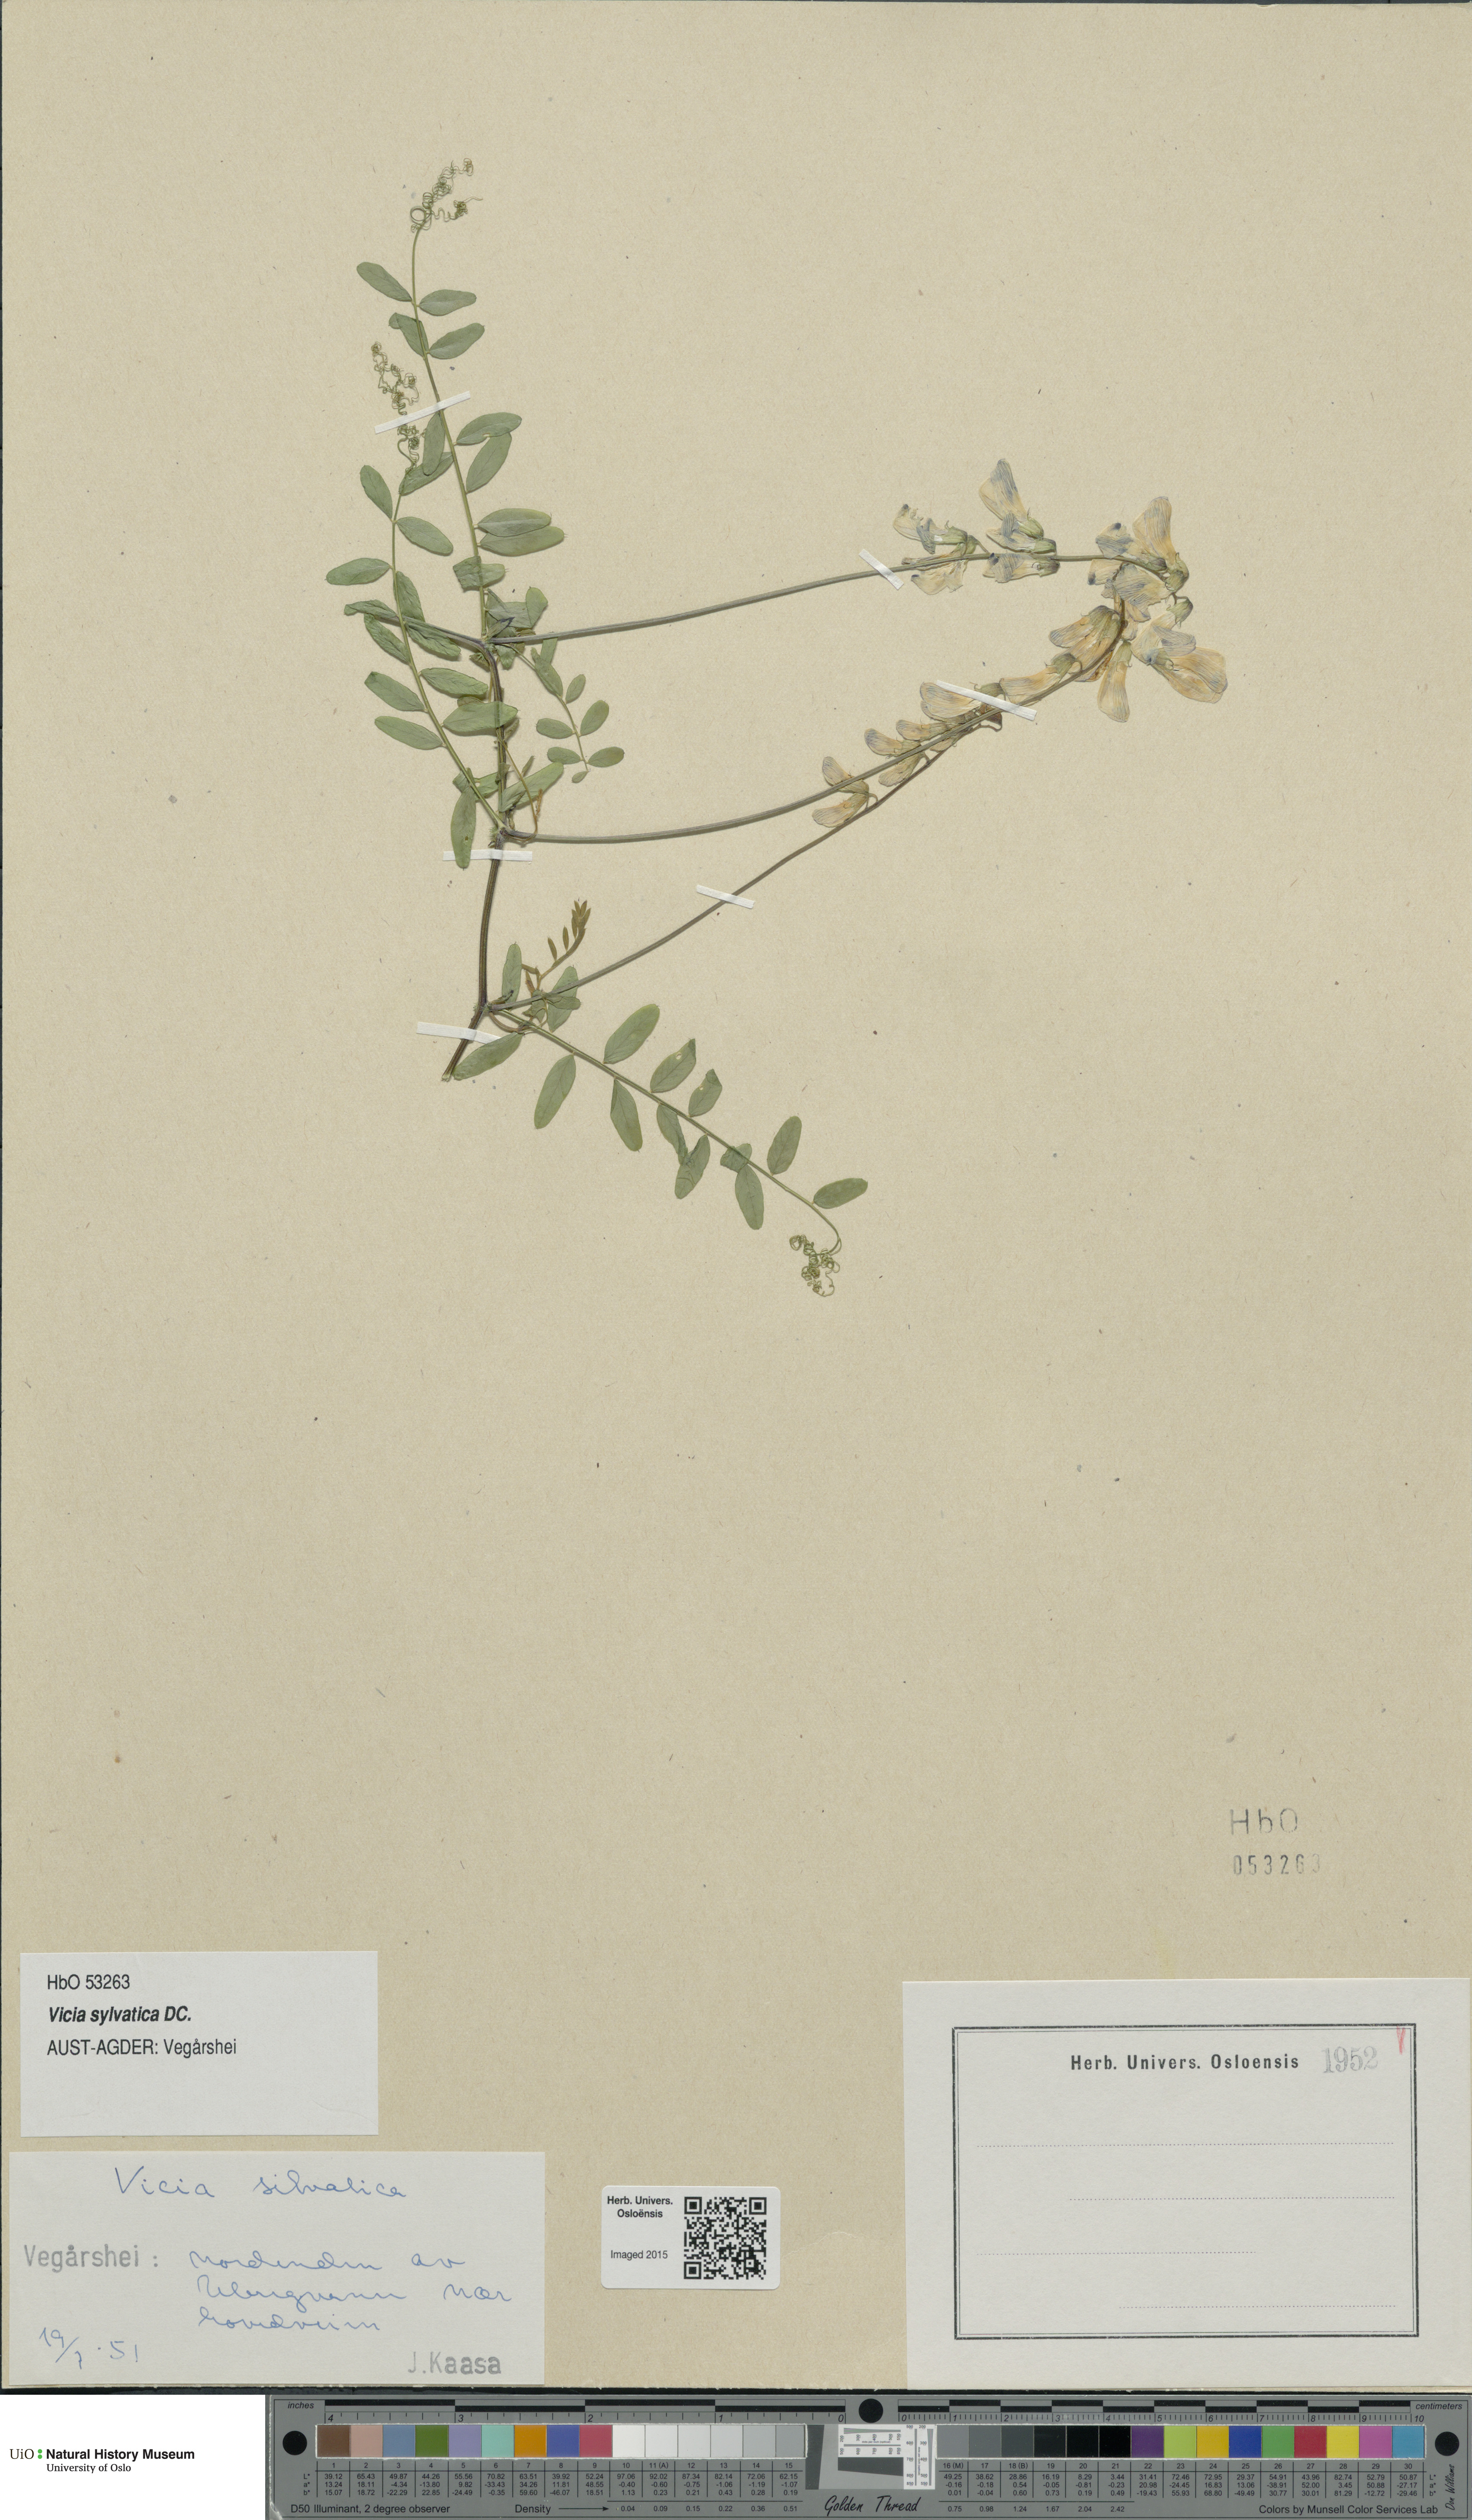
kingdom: Plantae
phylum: Tracheophyta
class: Magnoliopsida
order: Fabales
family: Fabaceae
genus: Vicia
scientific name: Vicia sylvatica
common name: Wood vetch
